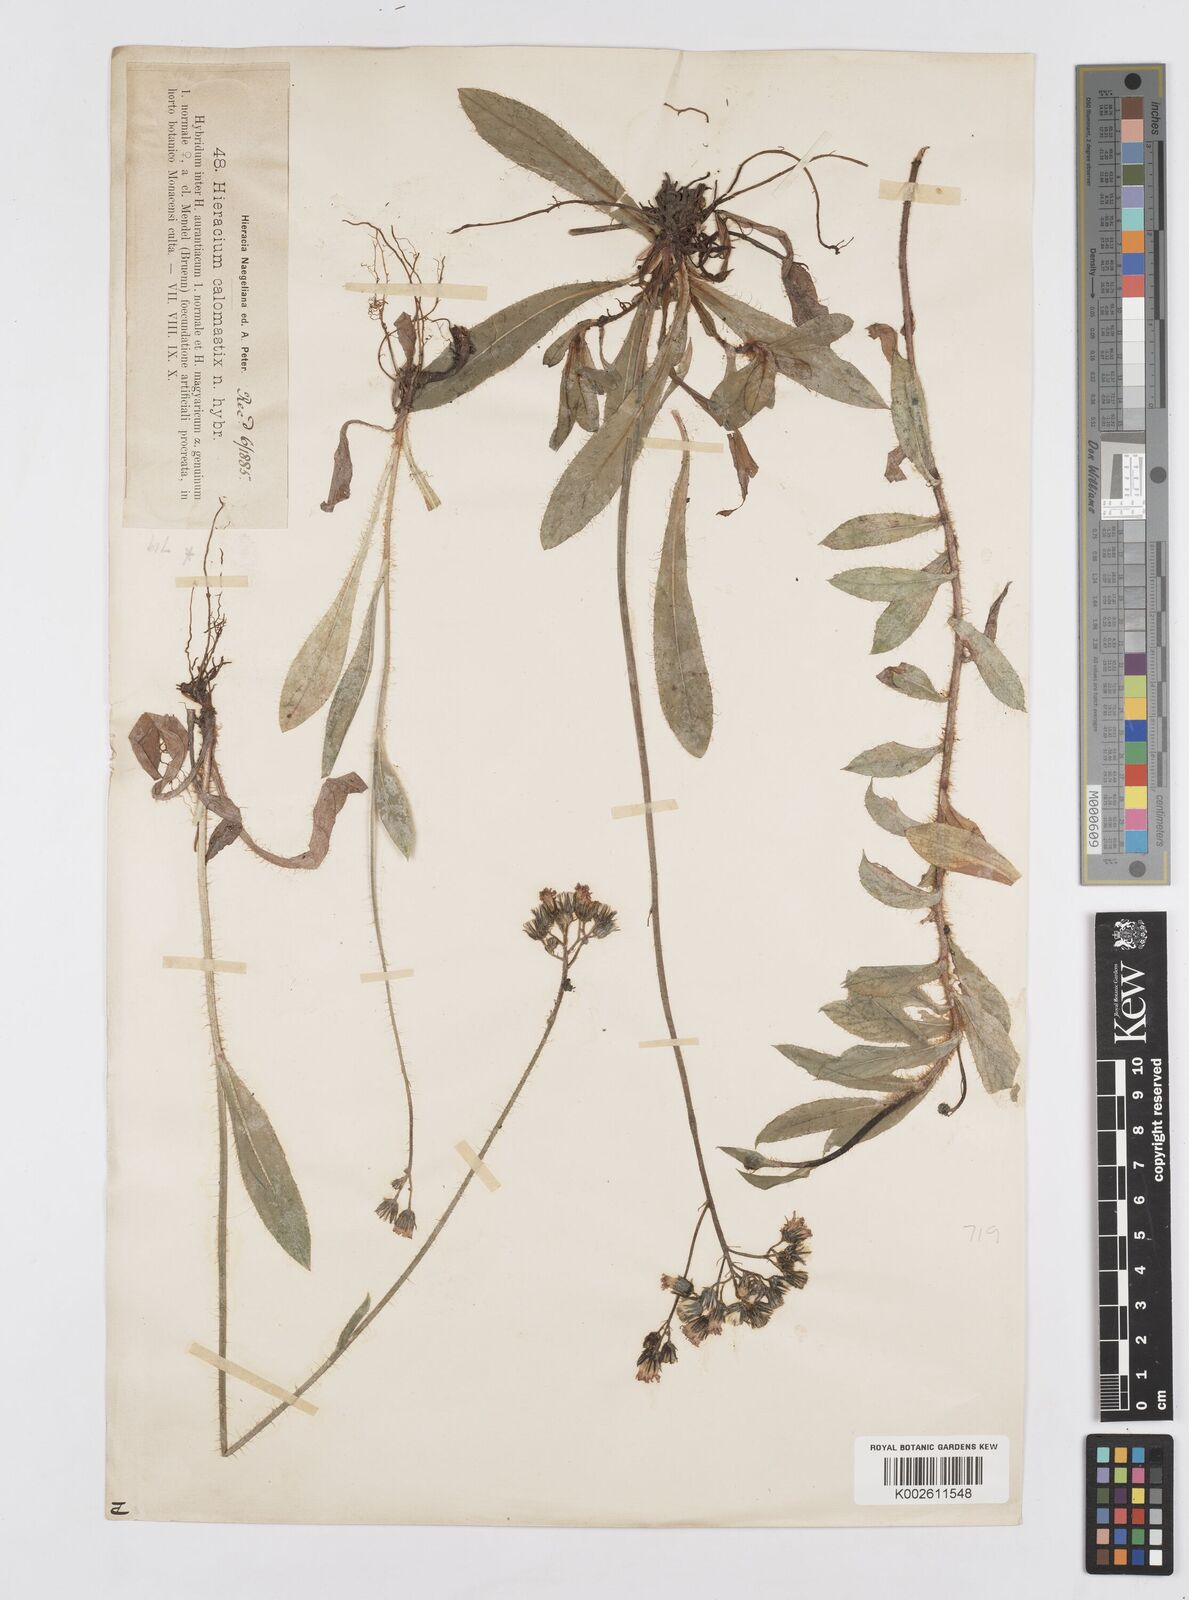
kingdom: Plantae
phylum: Tracheophyta
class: Magnoliopsida
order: Asterales
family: Asteraceae
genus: Pilosella
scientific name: Pilosella calomastix
